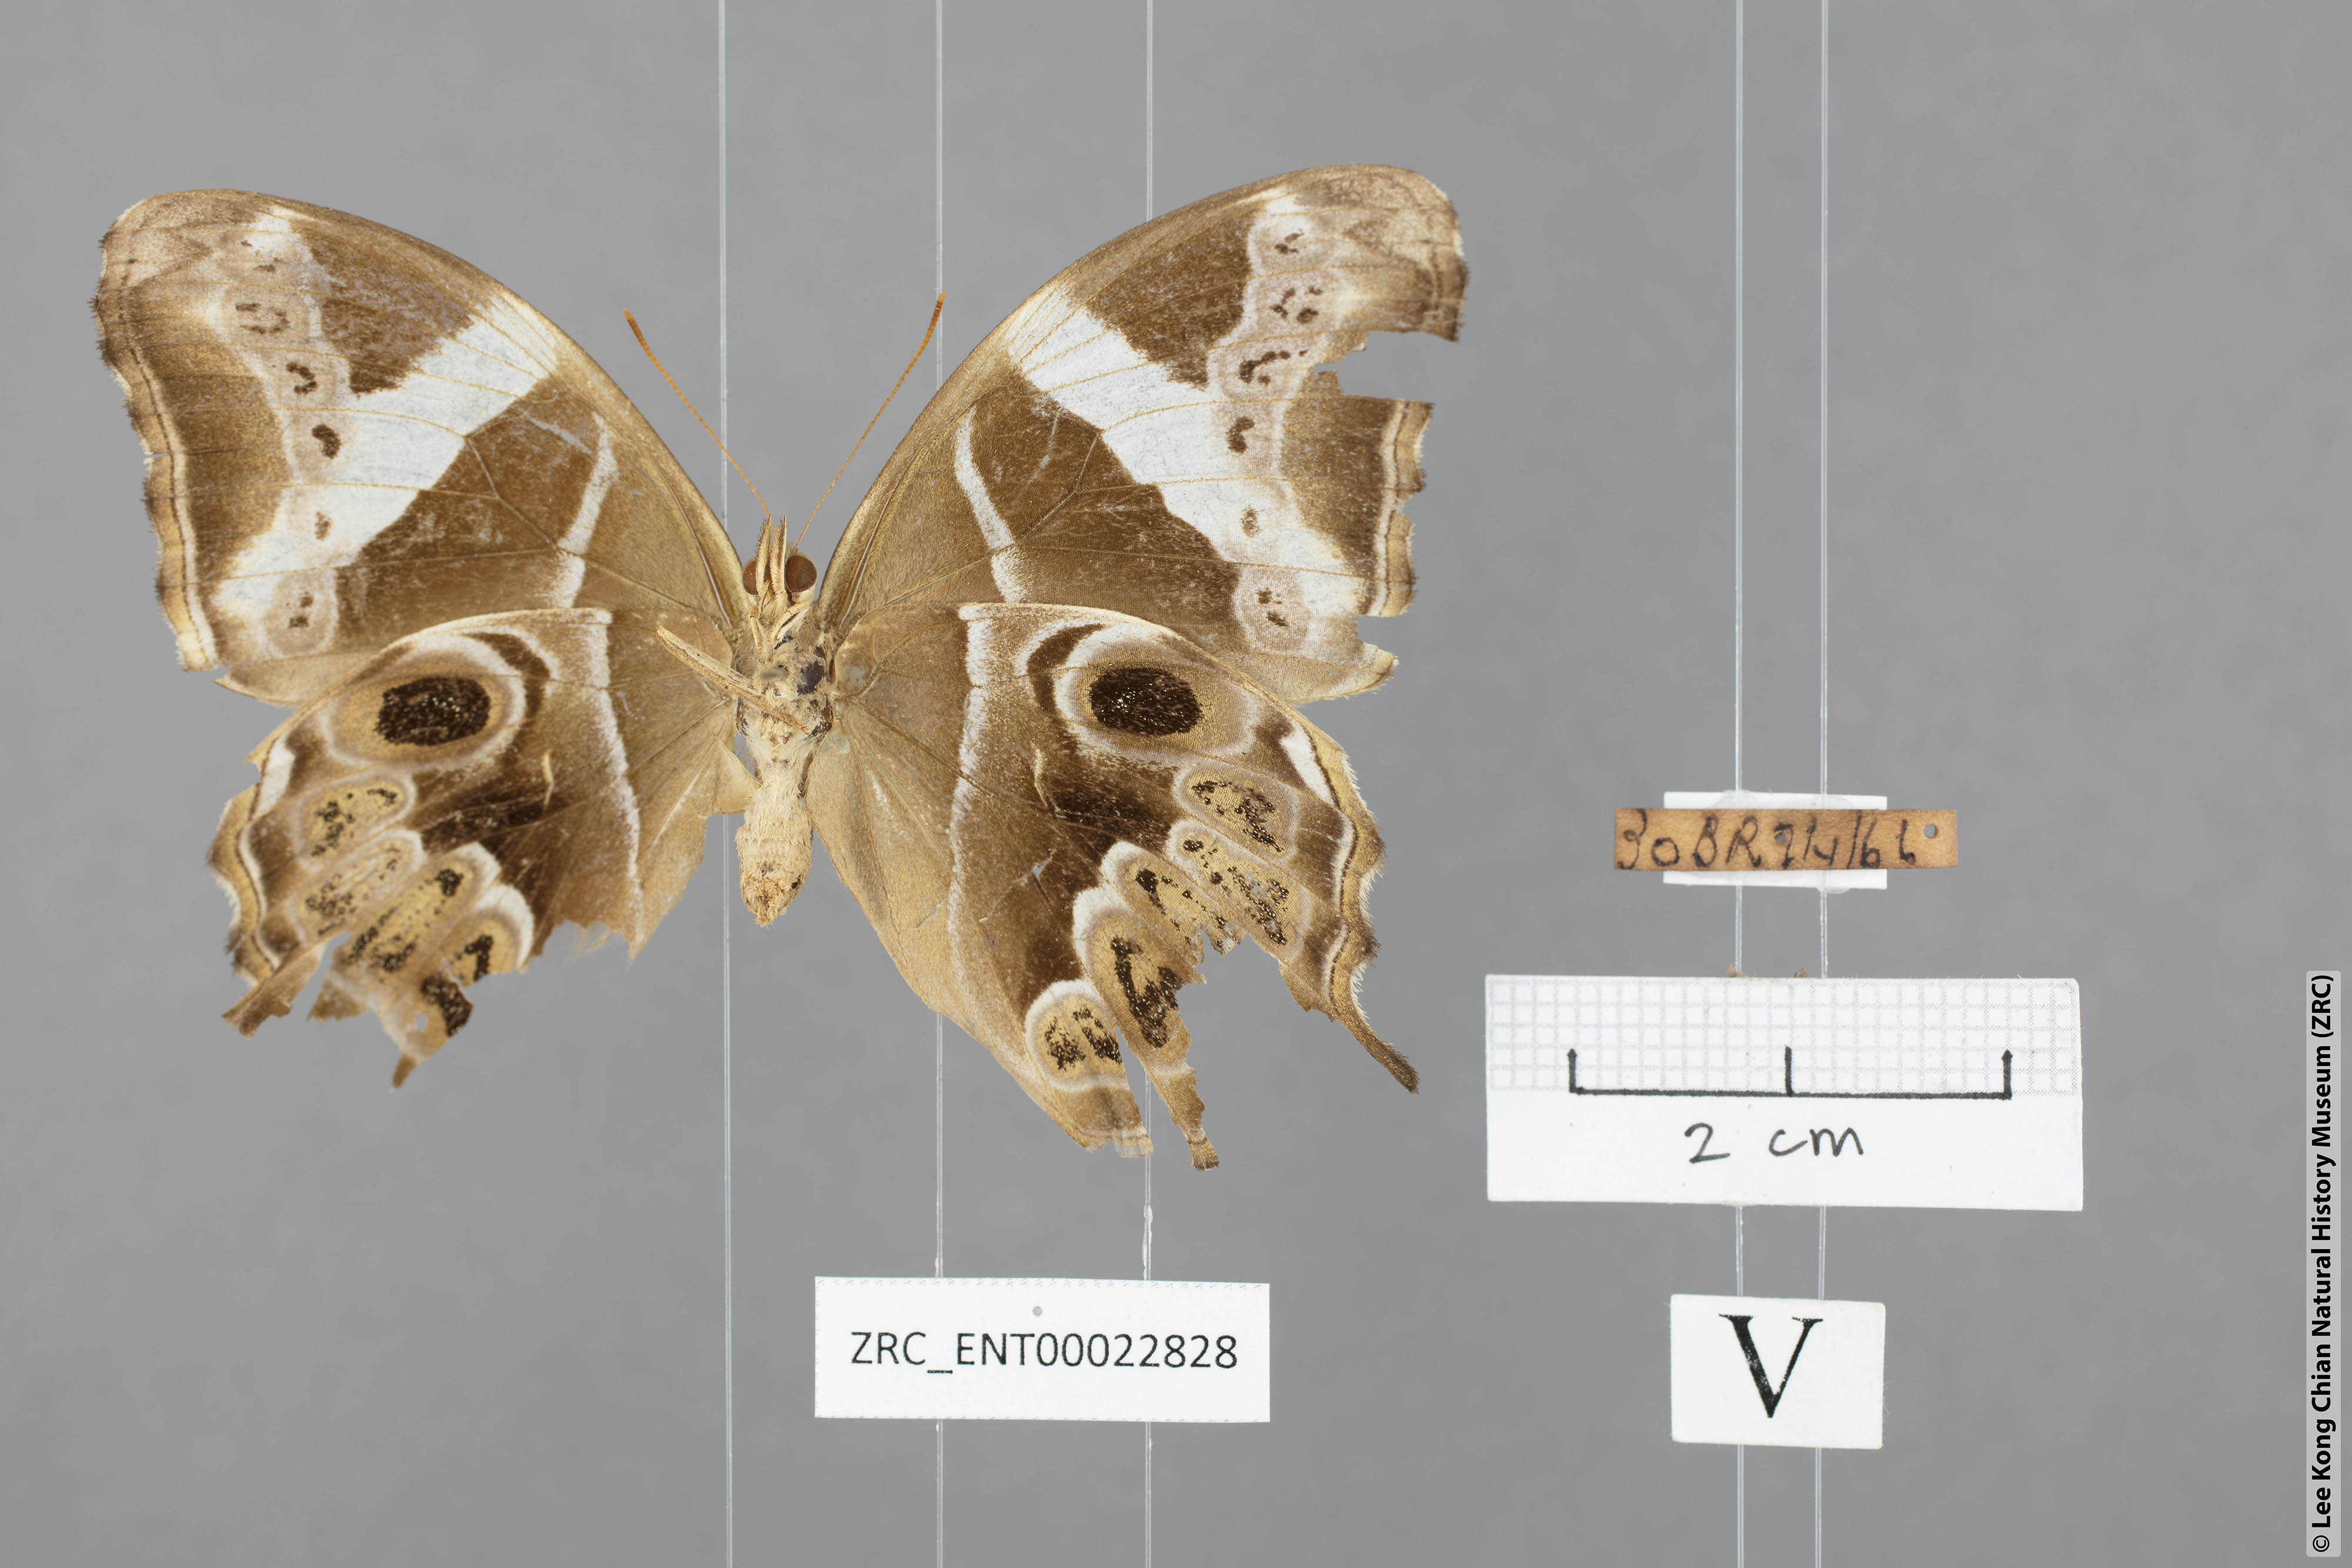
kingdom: Animalia
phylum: Arthropoda
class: Insecta
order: Lepidoptera
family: Nymphalidae
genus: Lethe
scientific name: Lethe europa
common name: Bamboo treebrown
